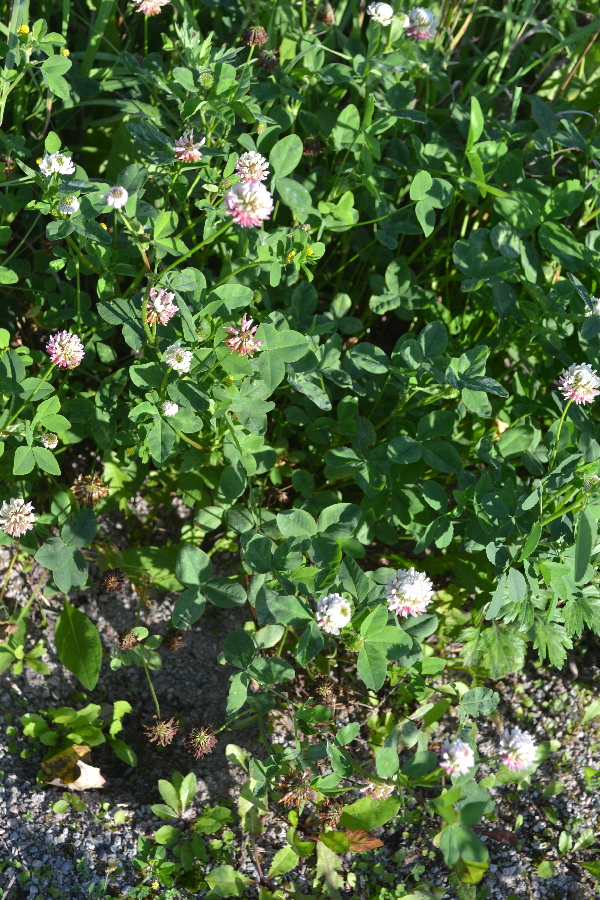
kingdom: Plantae
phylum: Tracheophyta
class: Magnoliopsida
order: Fabales
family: Fabaceae
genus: Trifolium
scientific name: Trifolium hybridum
